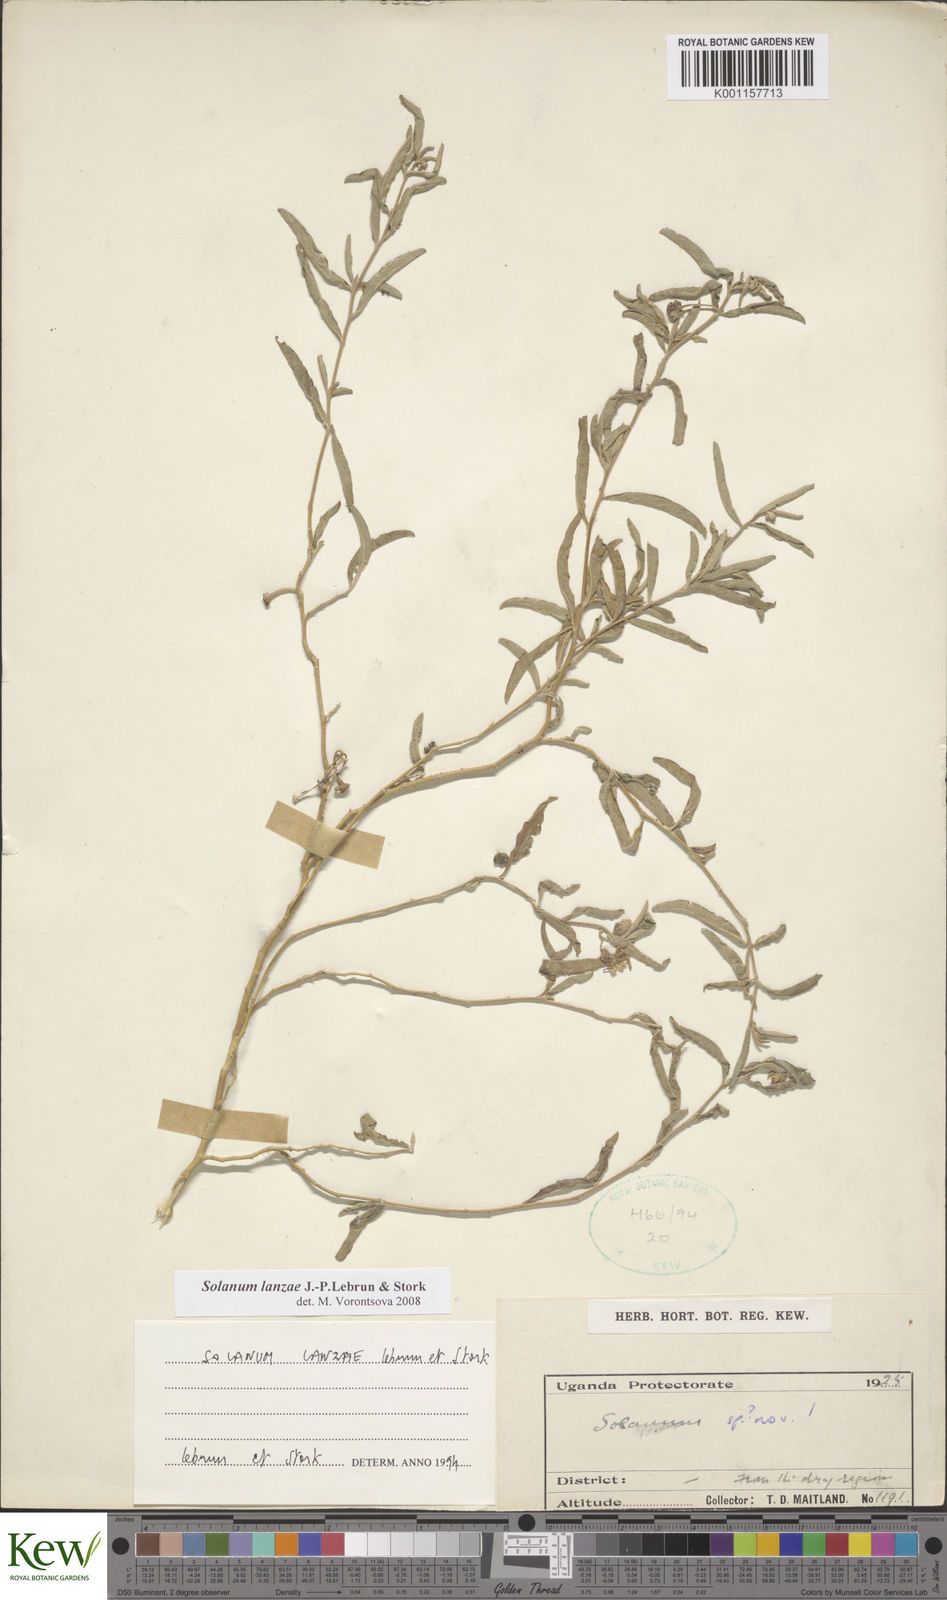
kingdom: Plantae
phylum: Tracheophyta
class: Magnoliopsida
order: Solanales
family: Solanaceae
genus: Solanum
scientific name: Solanum lanzae
